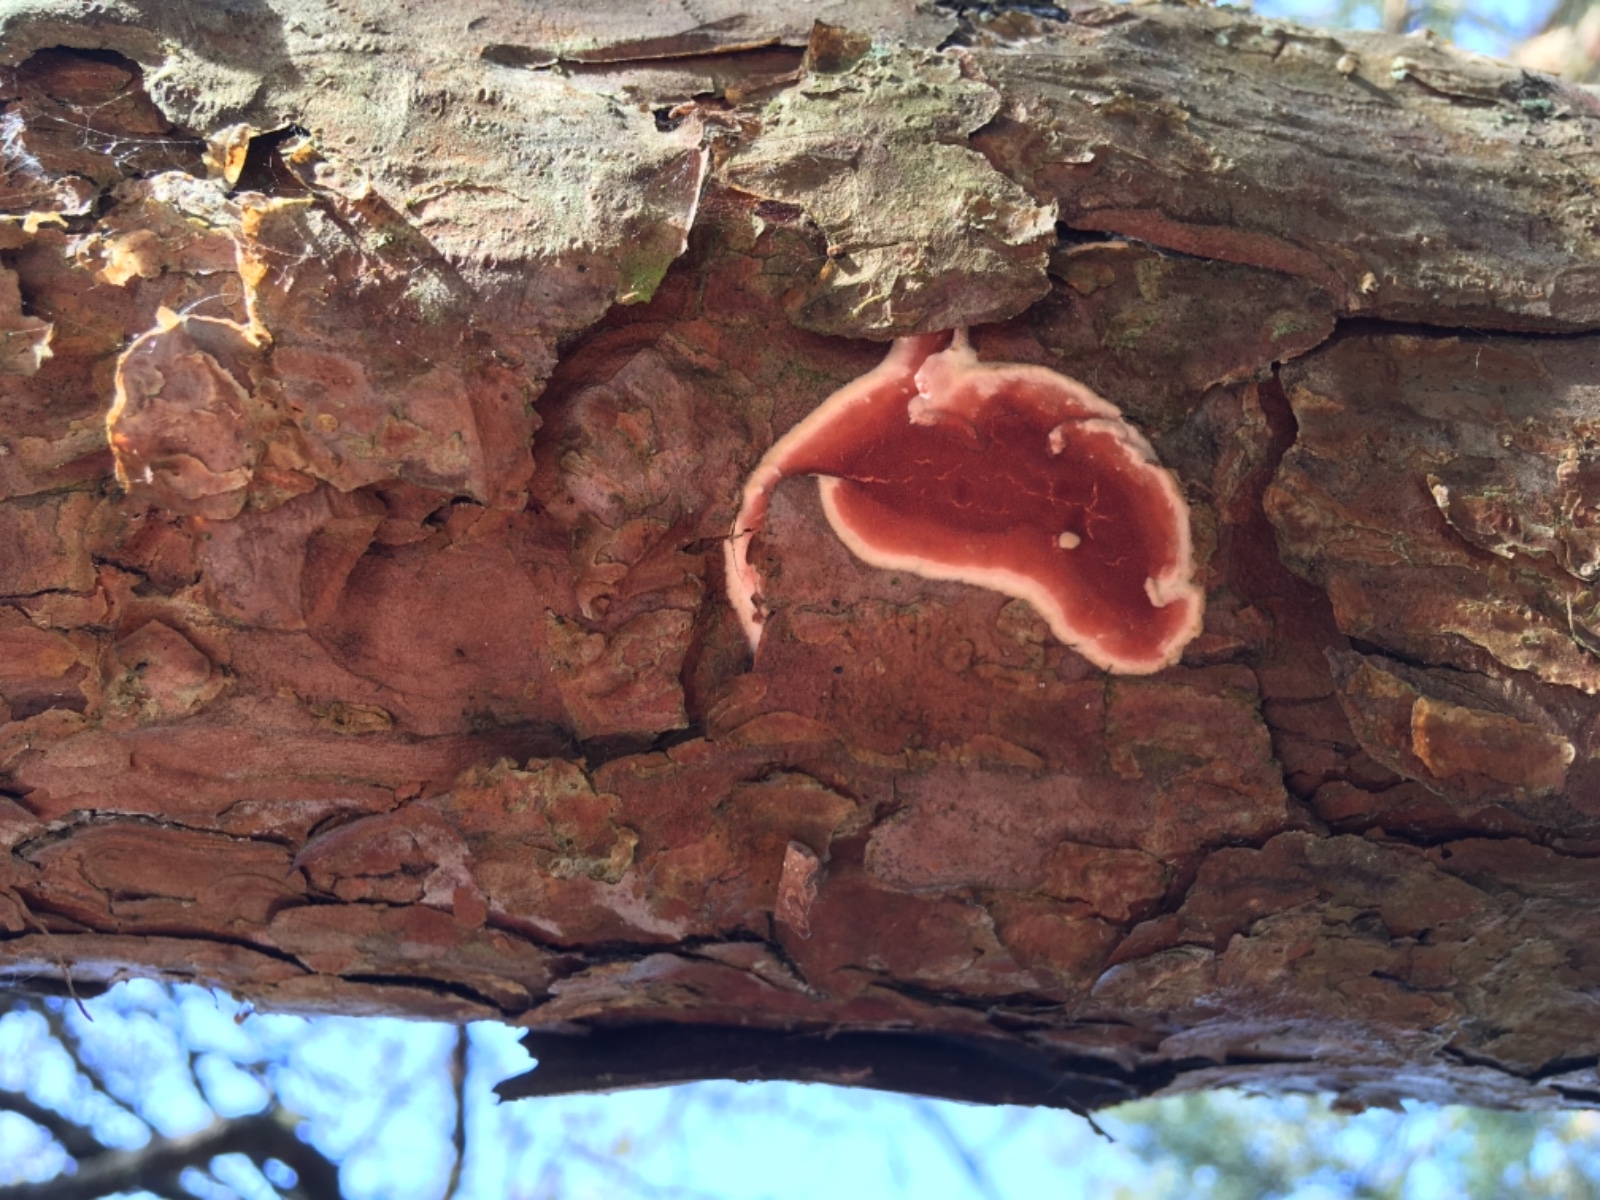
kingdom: Fungi
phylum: Basidiomycota
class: Agaricomycetes
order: Polyporales
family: Irpicaceae
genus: Meruliopsis
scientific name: Meruliopsis taxicola
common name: purpurbrun foldporesvamp
